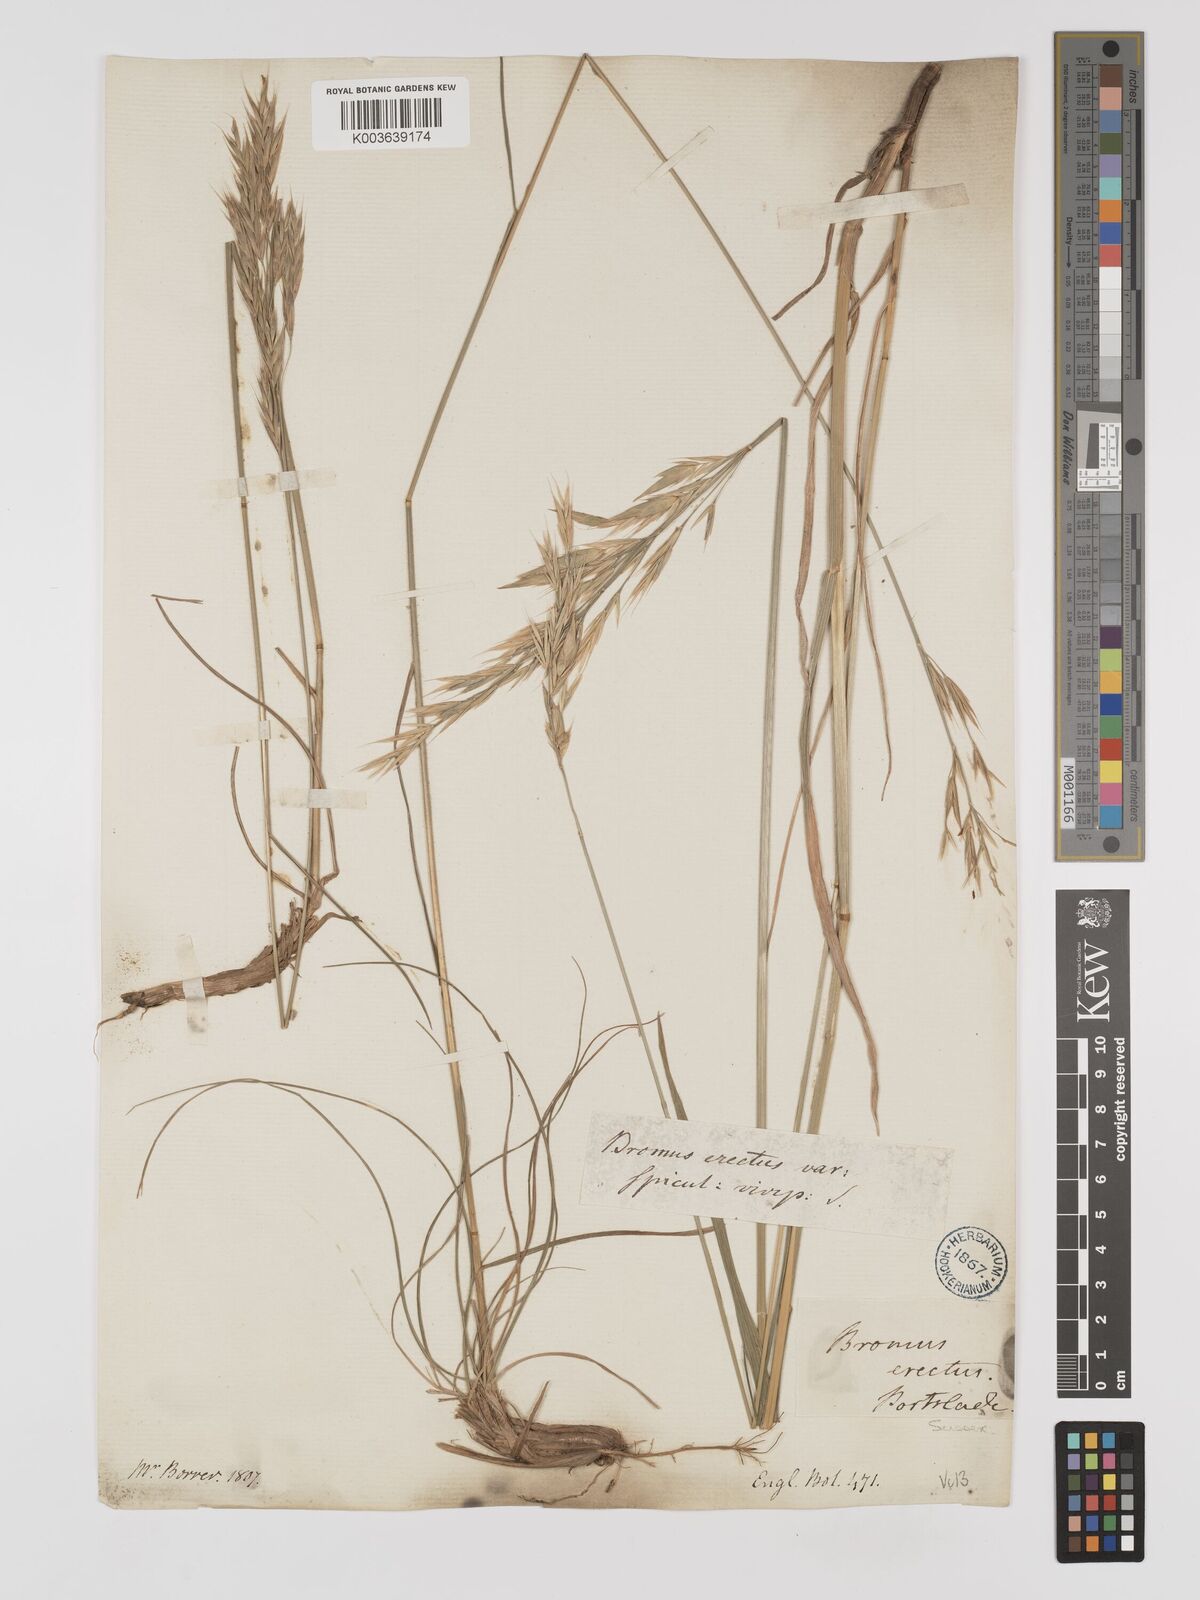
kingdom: Plantae
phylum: Tracheophyta
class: Liliopsida
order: Poales
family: Poaceae
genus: Bromus
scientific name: Bromus erectus
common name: Erect brome
